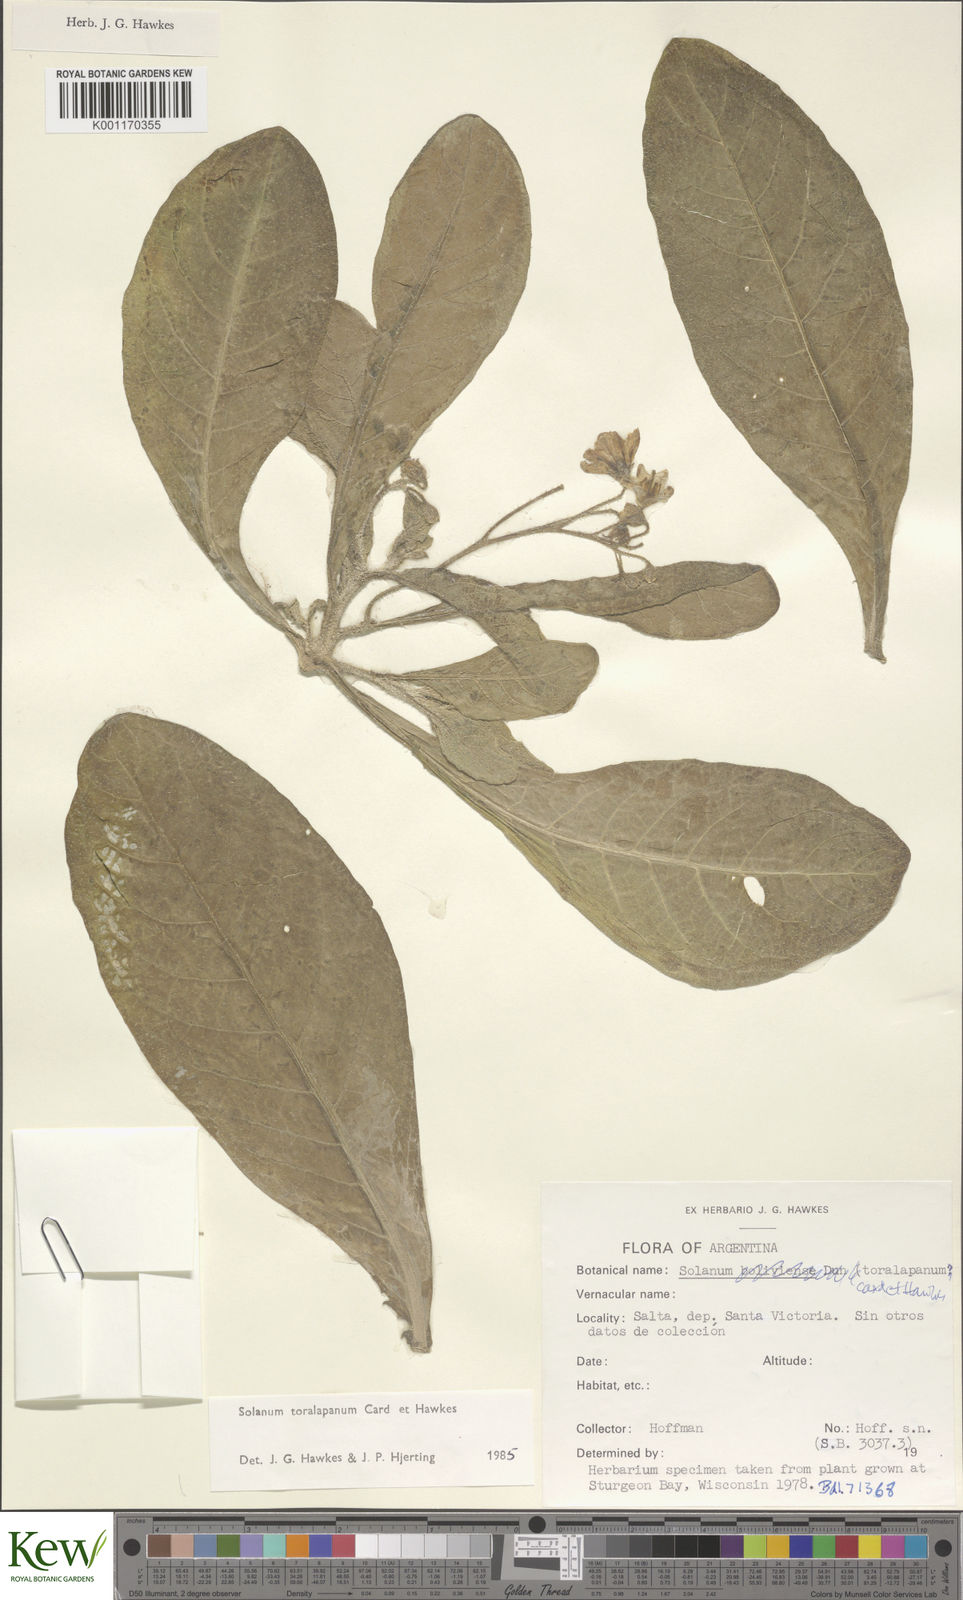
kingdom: Plantae
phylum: Tracheophyta
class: Magnoliopsida
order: Solanales
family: Solanaceae
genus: Solanum
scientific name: Solanum
